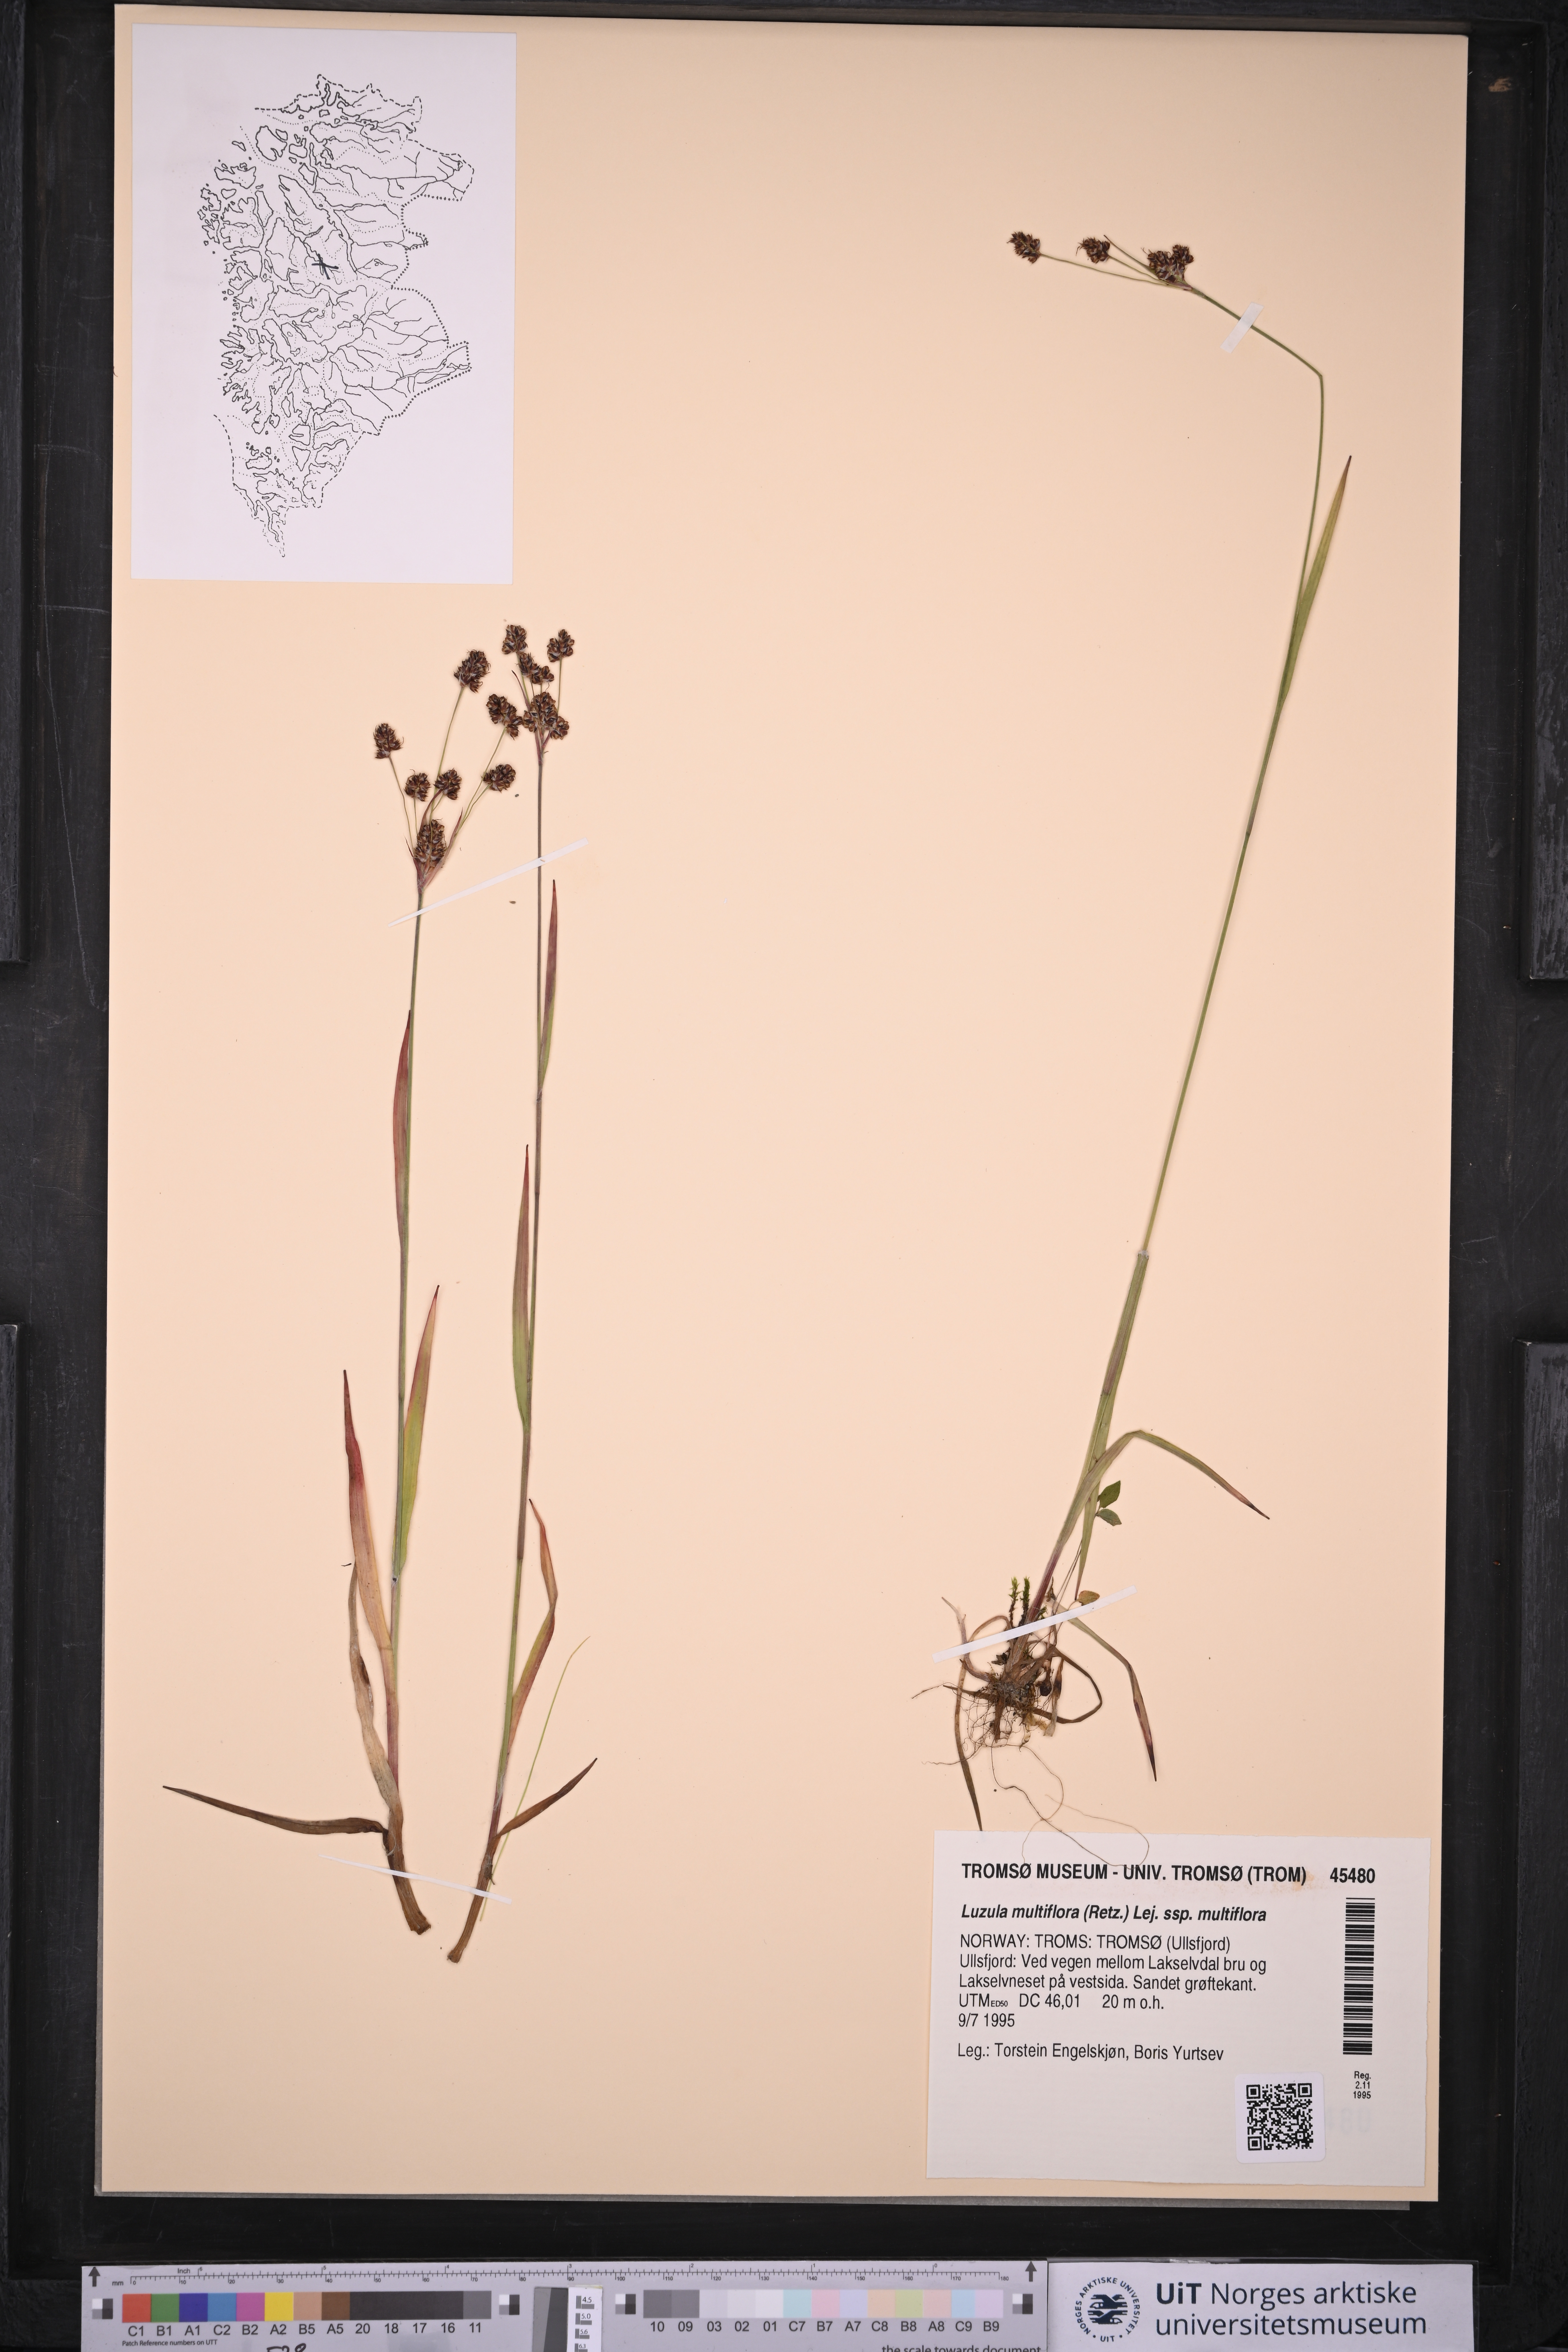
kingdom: Plantae
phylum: Tracheophyta
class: Liliopsida
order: Poales
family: Juncaceae
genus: Luzula
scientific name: Luzula multiflora
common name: Heath wood-rush
